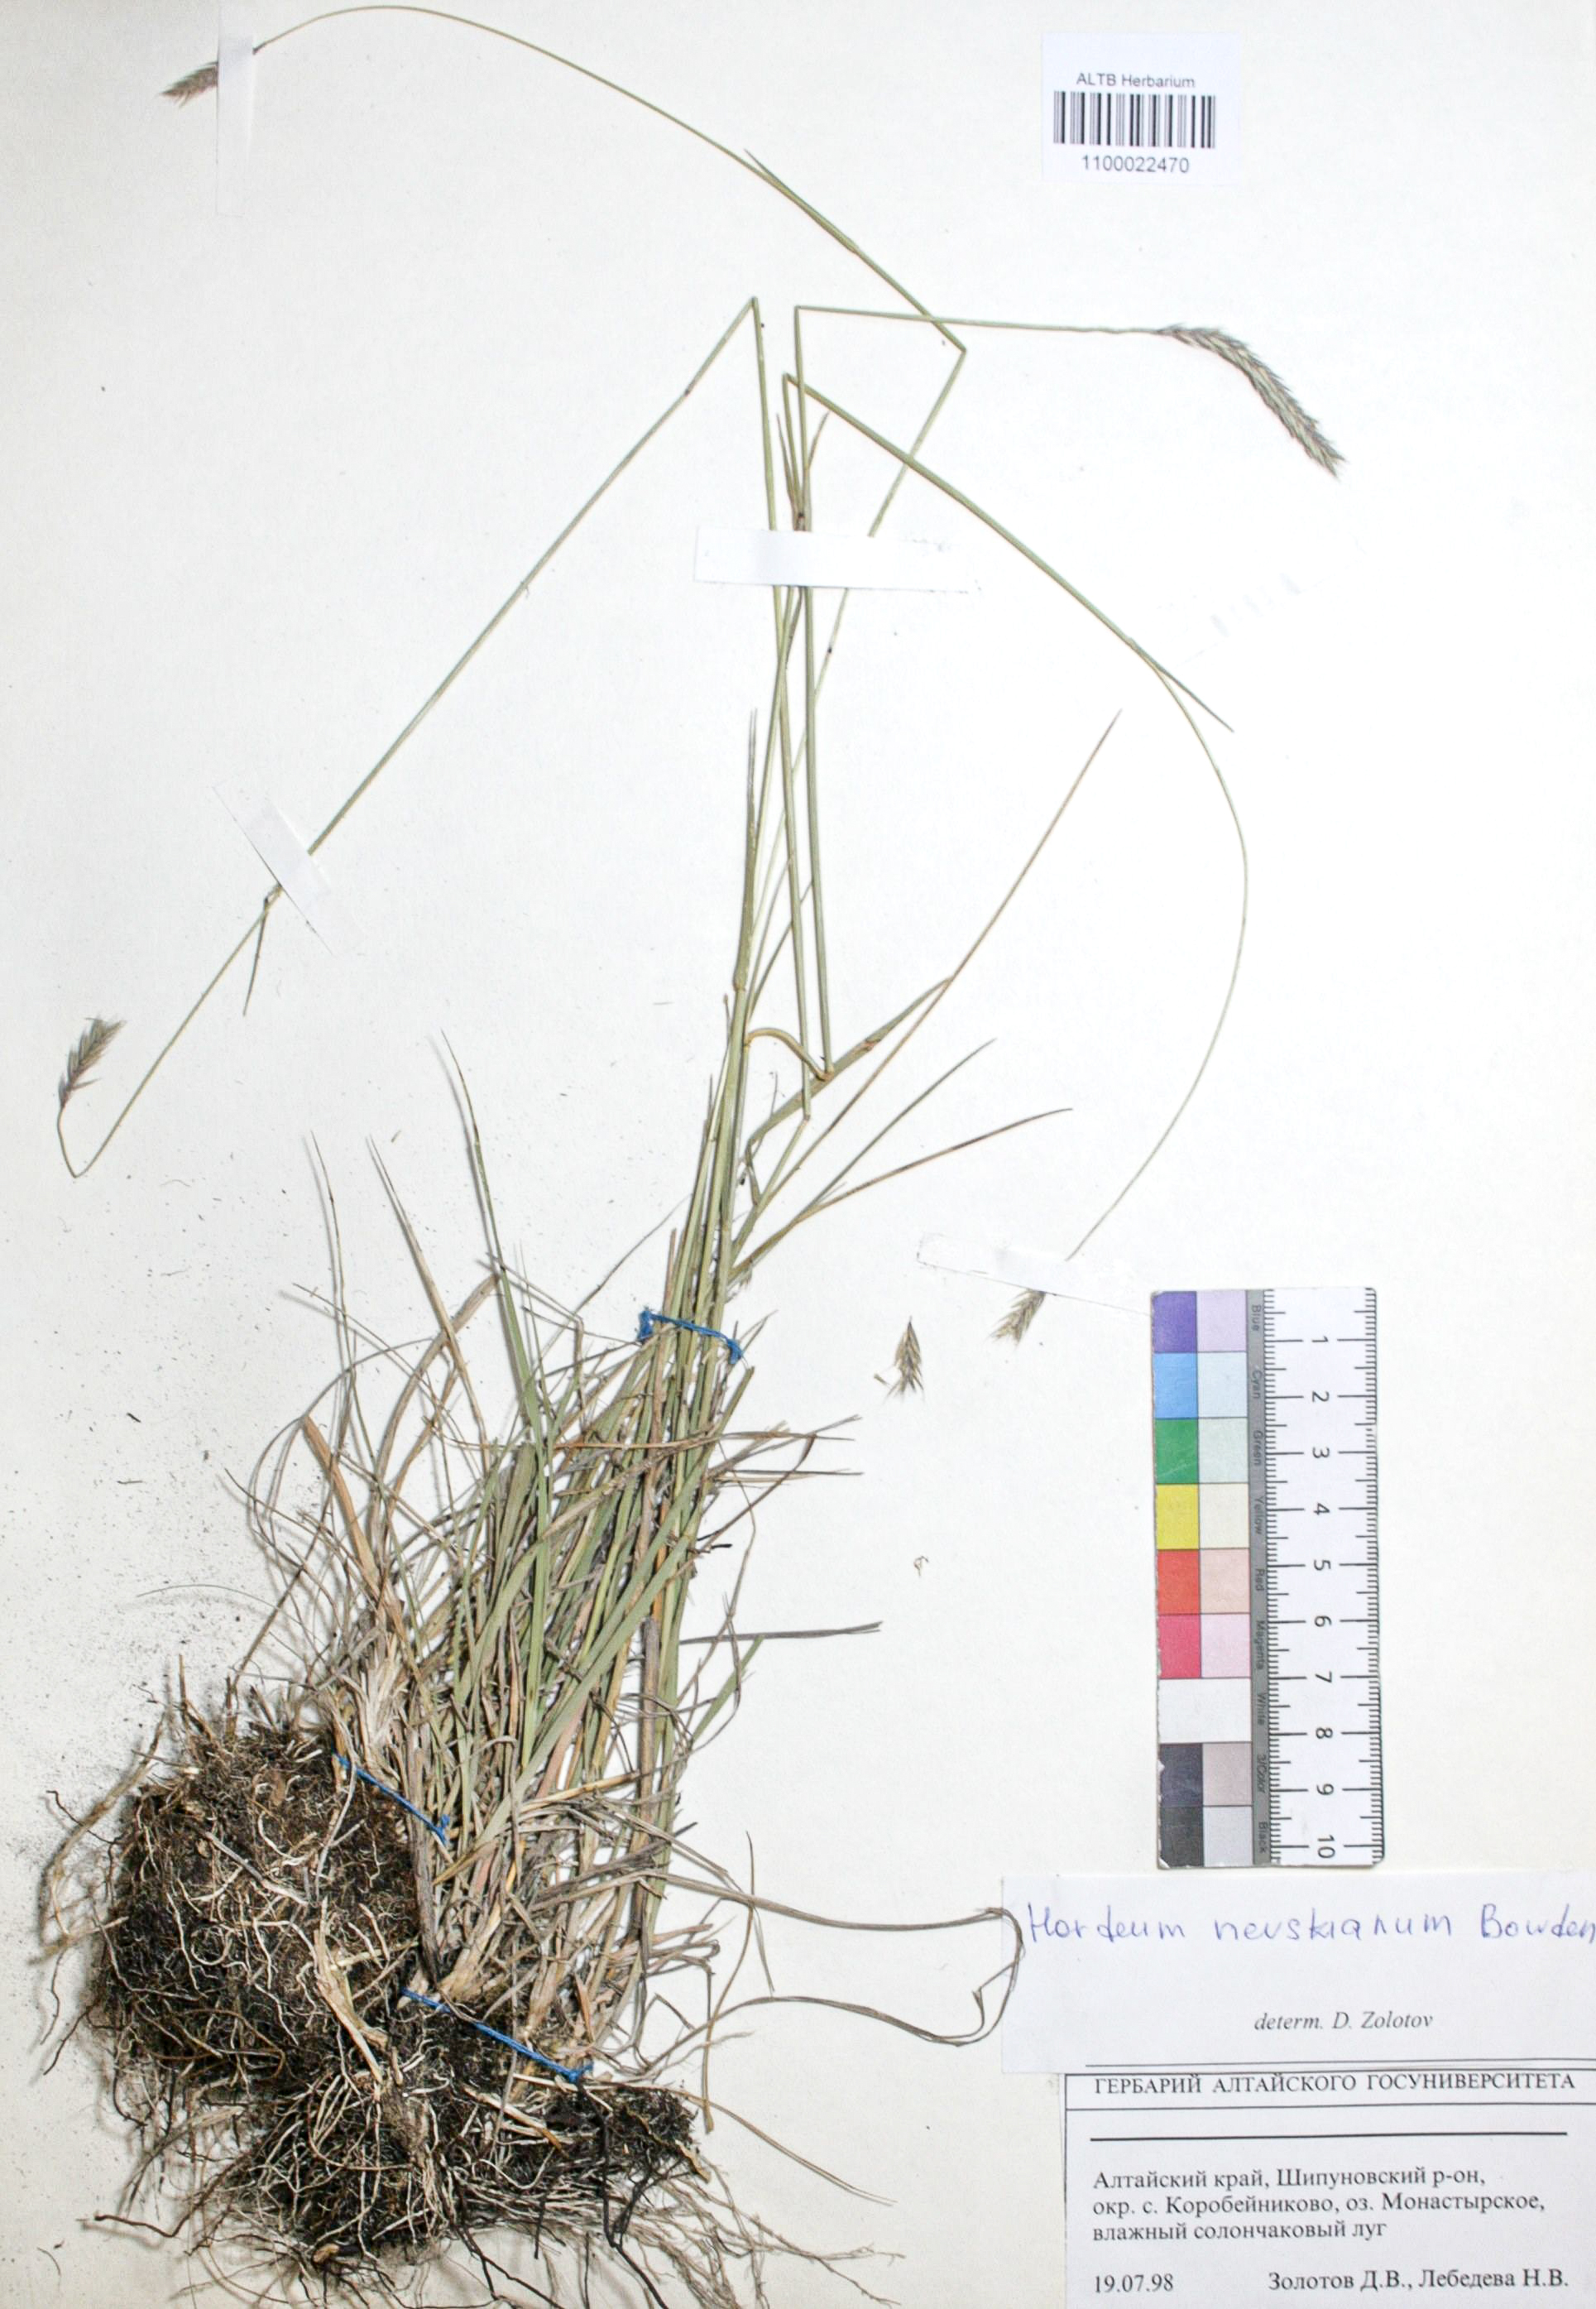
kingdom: Plantae
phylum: Tracheophyta
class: Liliopsida
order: Poales
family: Poaceae
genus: Hordeum
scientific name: Hordeum brevisubulatum
